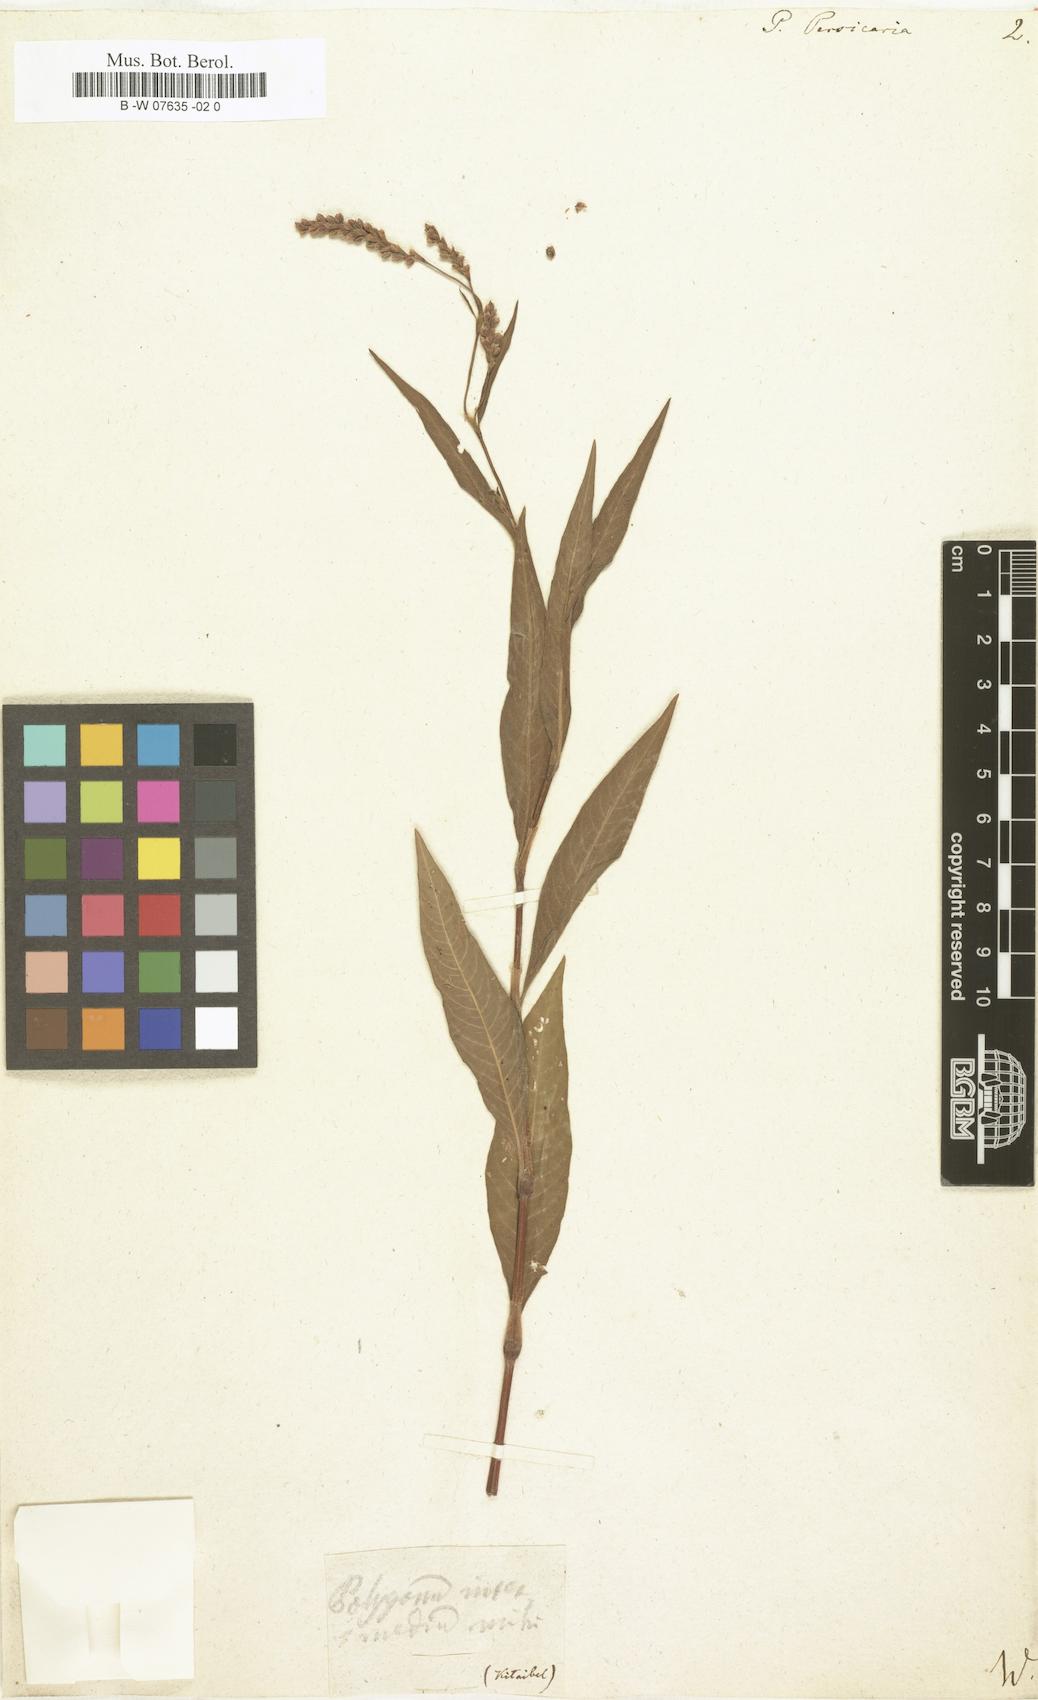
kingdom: Plantae
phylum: Tracheophyta
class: Magnoliopsida
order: Caryophyllales
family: Polygonaceae
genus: Polygonum
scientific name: Polygonum persicaria
